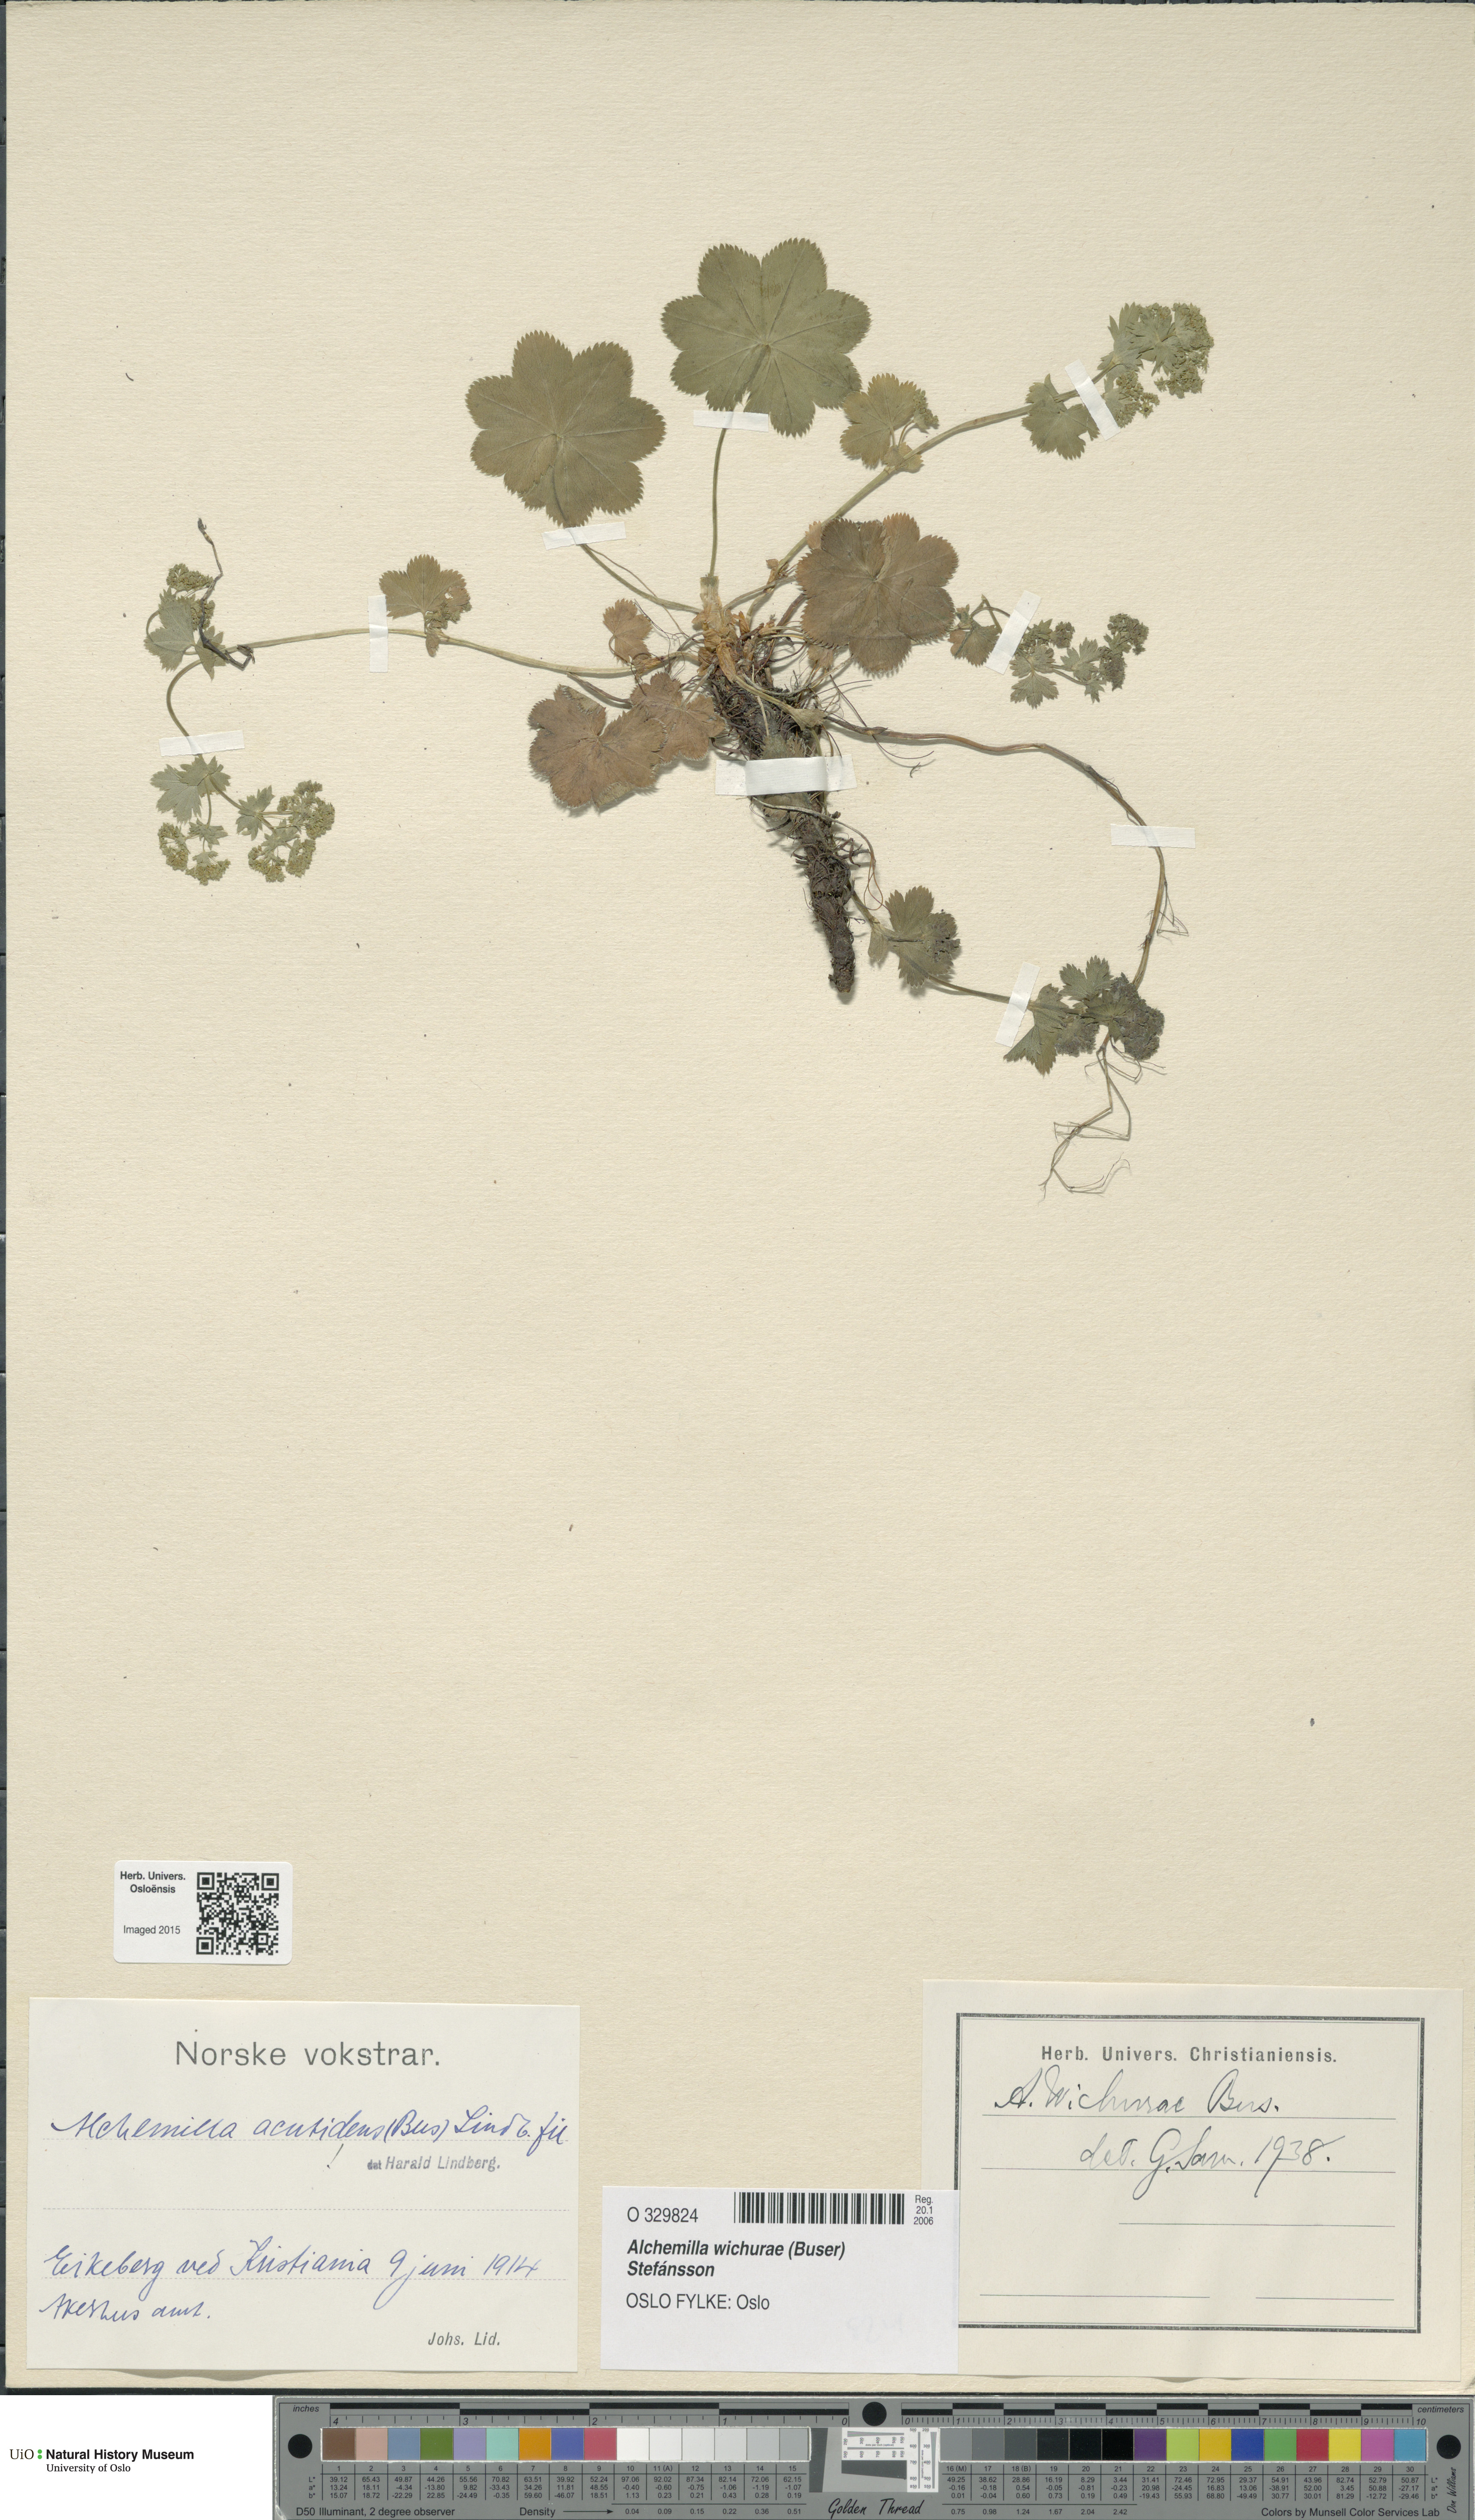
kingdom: Plantae
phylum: Tracheophyta
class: Magnoliopsida
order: Rosales
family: Rosaceae
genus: Alchemilla
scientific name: Alchemilla wichurae
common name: Rock lady's mantle
